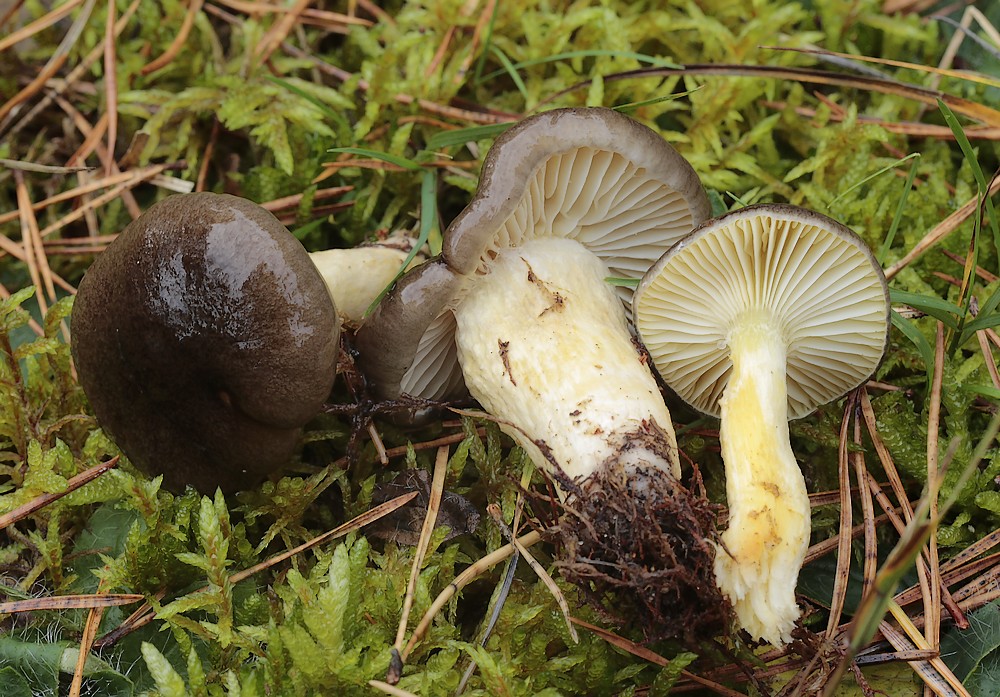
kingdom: Fungi
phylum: Basidiomycota
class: Agaricomycetes
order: Agaricales
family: Hygrophoraceae
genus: Hygrophorus
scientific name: Hygrophorus hypothejus
